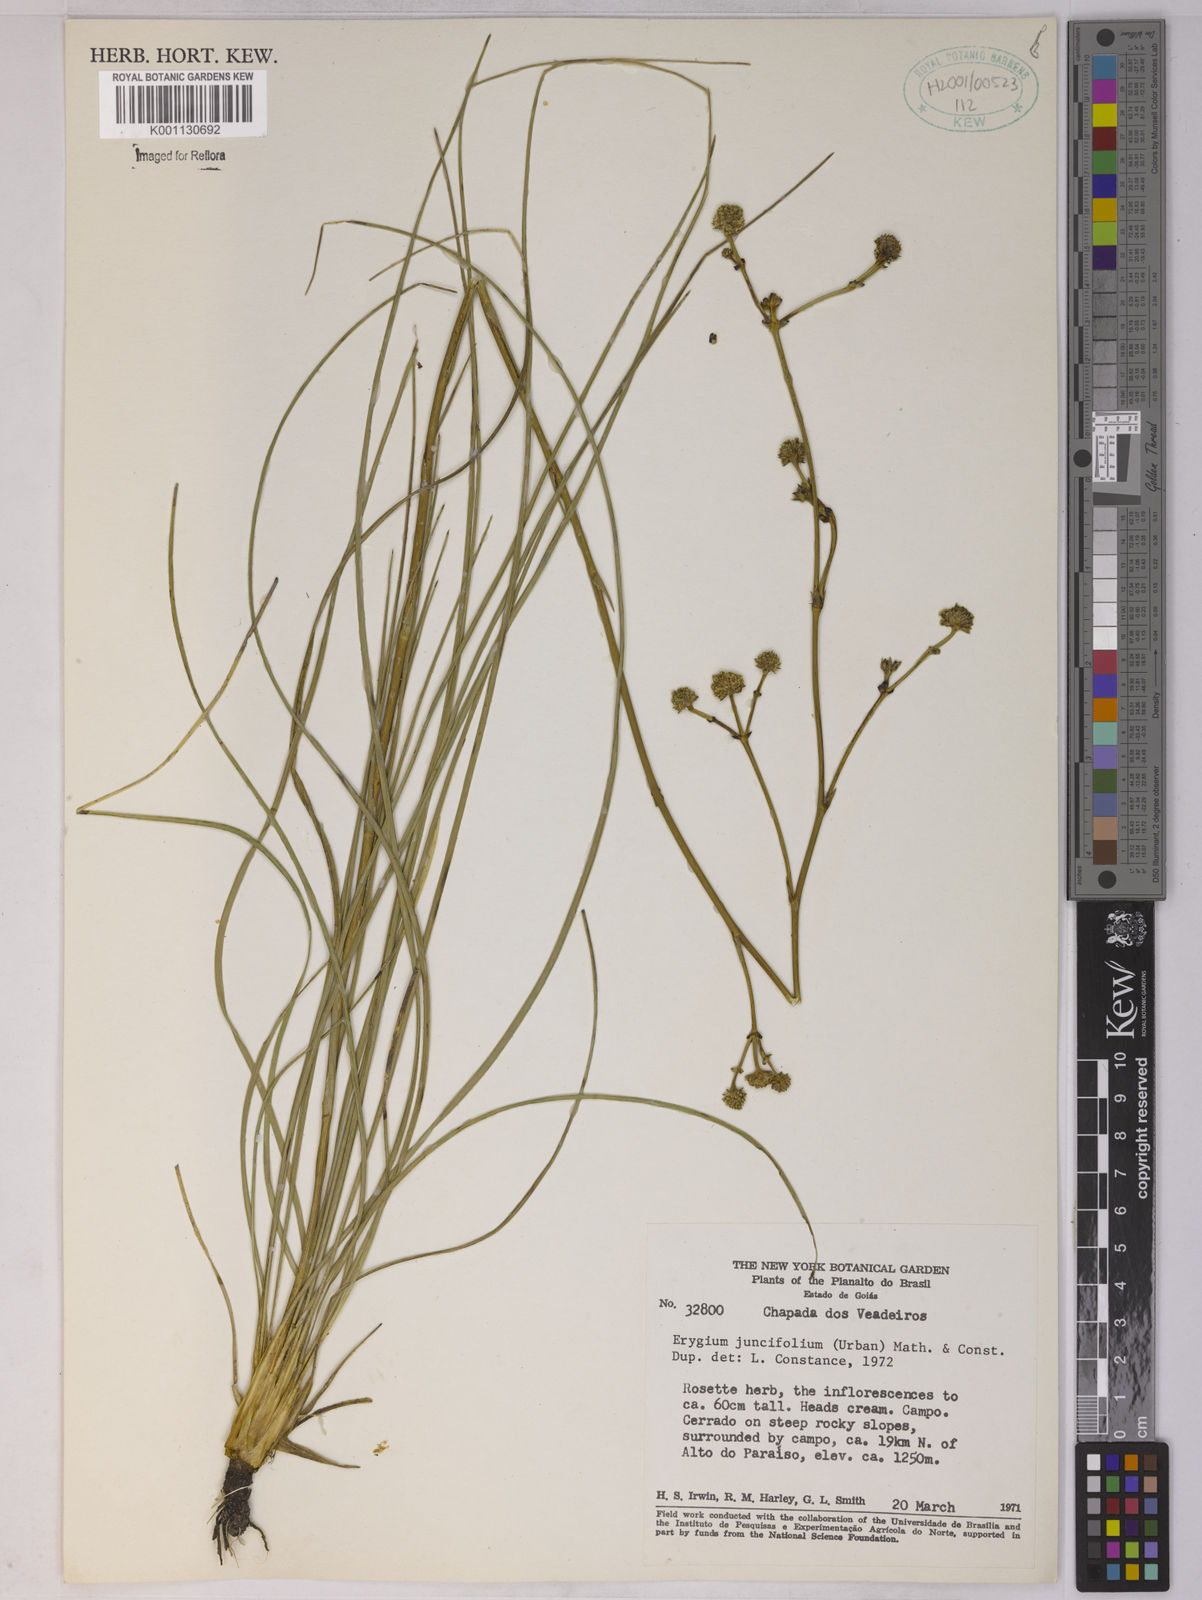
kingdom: Plantae
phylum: Tracheophyta
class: Magnoliopsida
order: Apiales
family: Apiaceae
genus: Eryngium
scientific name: Eryngium juncifolium
